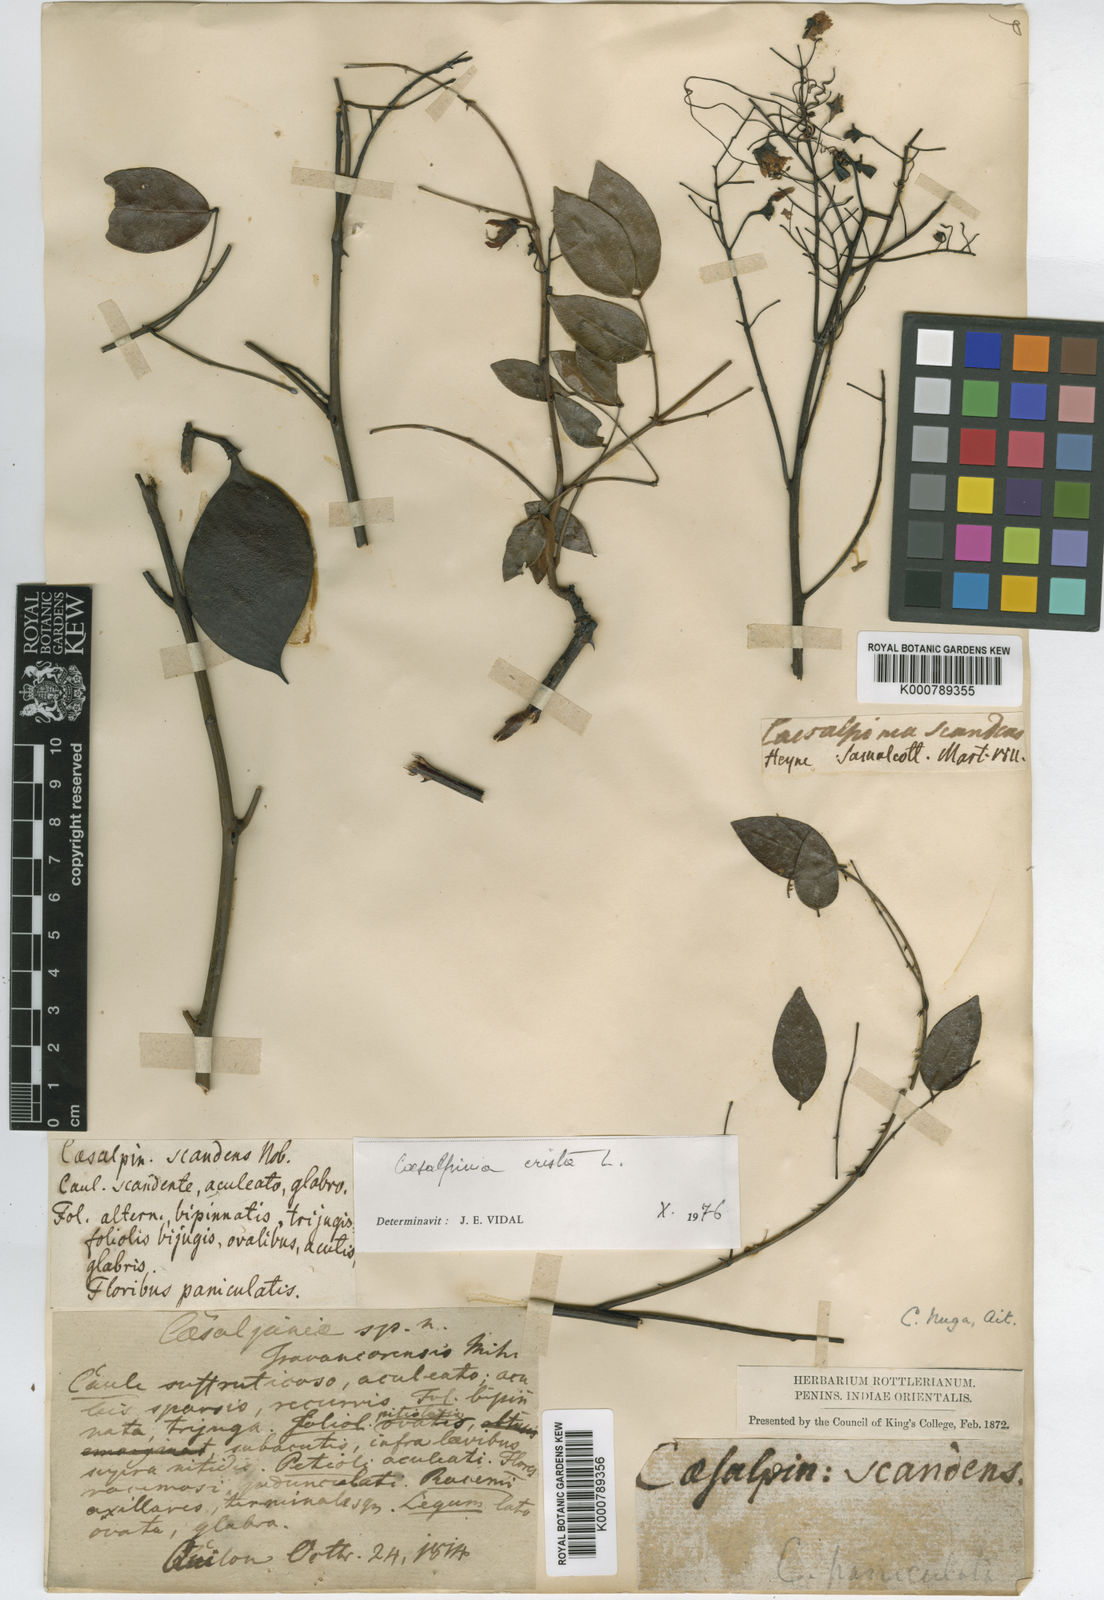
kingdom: Plantae
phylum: Tracheophyta
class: Magnoliopsida
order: Fabales
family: Fabaceae
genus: Caesalpinia
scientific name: Caesalpinia Ticanto crista
